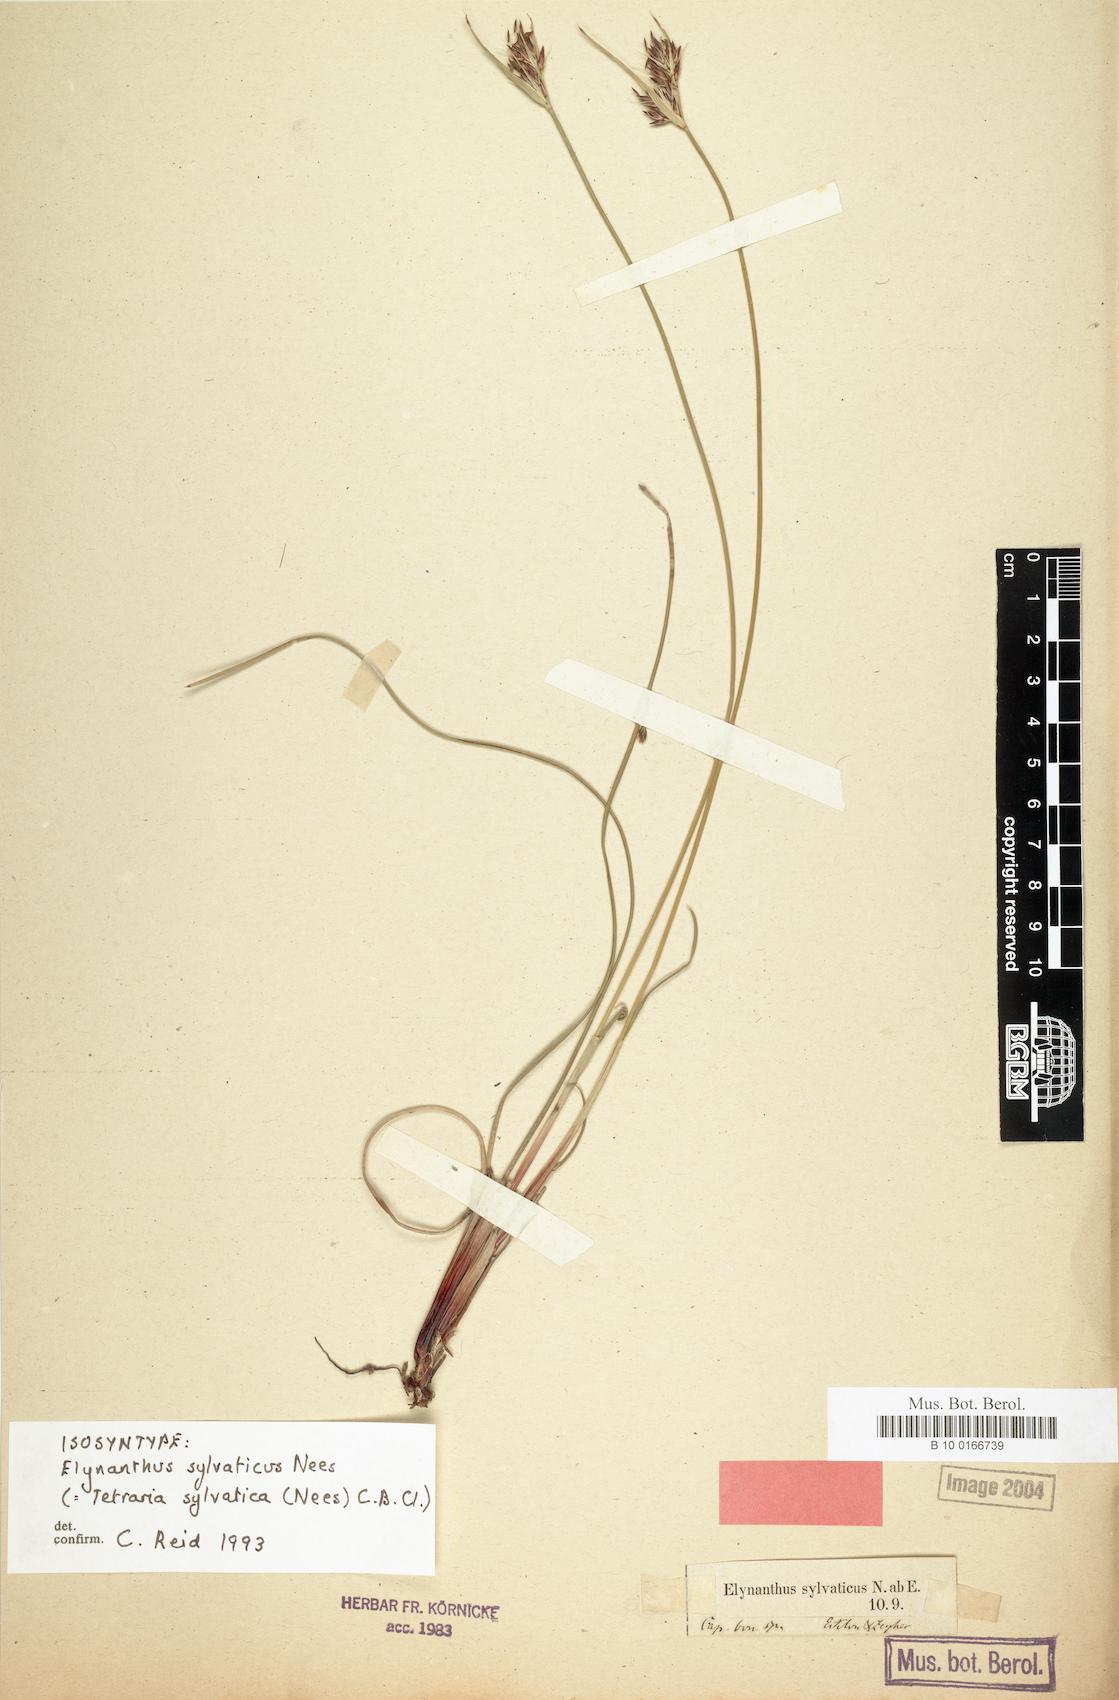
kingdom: Plantae
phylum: Tracheophyta
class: Liliopsida
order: Poales
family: Cyperaceae
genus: Schoenus
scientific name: Schoenus auritus
